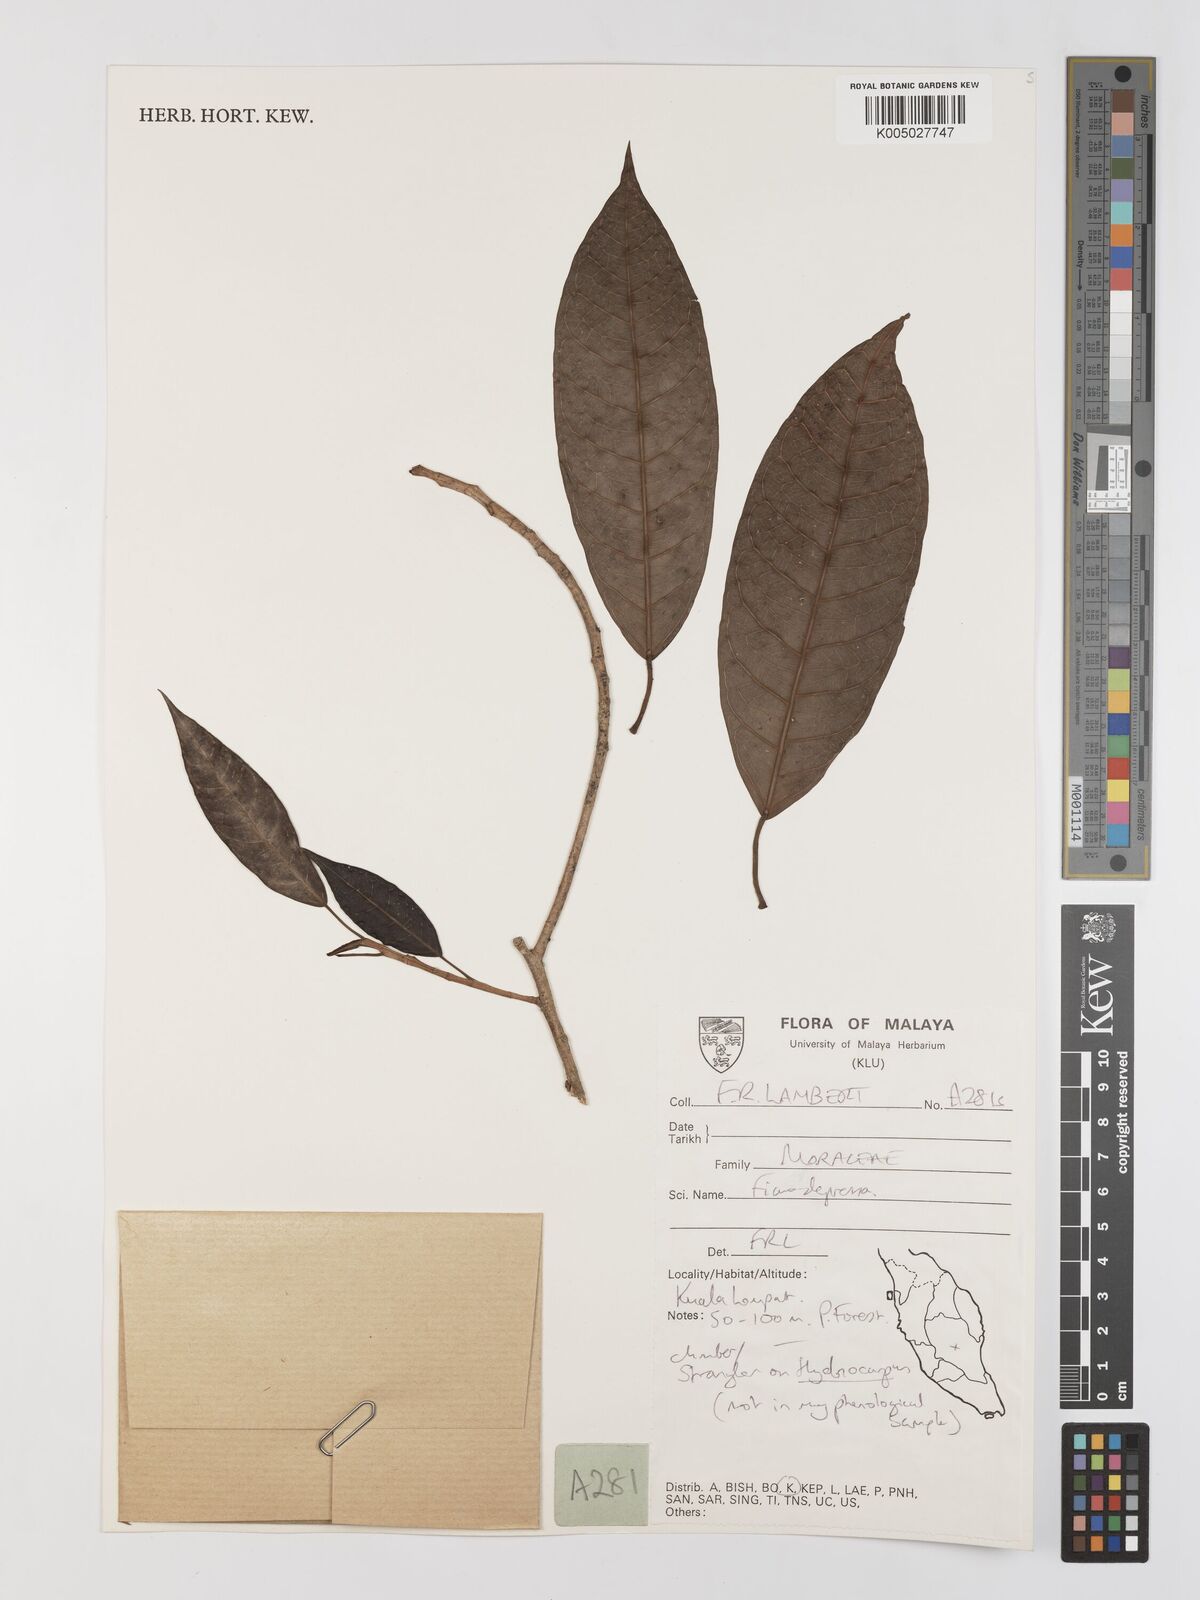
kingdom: Plantae
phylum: Tracheophyta
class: Magnoliopsida
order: Rosales
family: Moraceae
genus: Ficus
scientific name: Ficus
